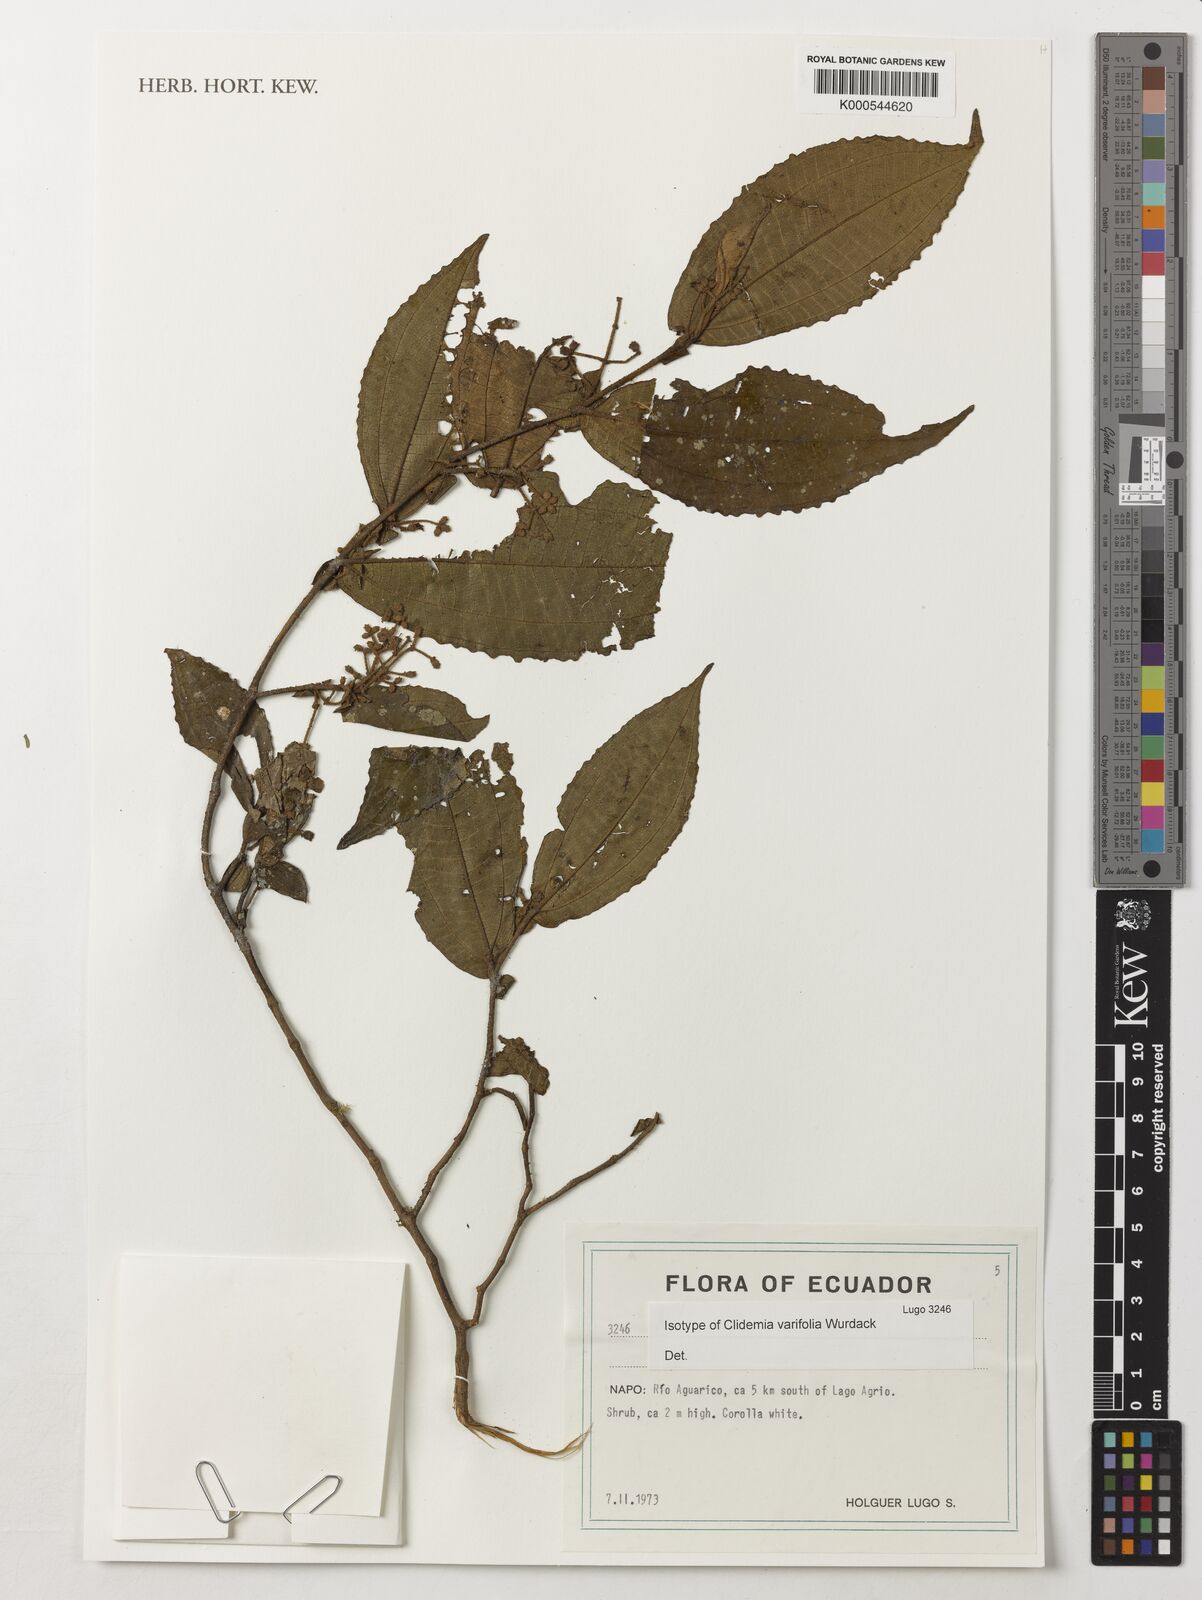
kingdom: Plantae
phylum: Tracheophyta
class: Magnoliopsida
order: Myrtales
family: Melastomataceae
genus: Miconia
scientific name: Miconia variifolia
